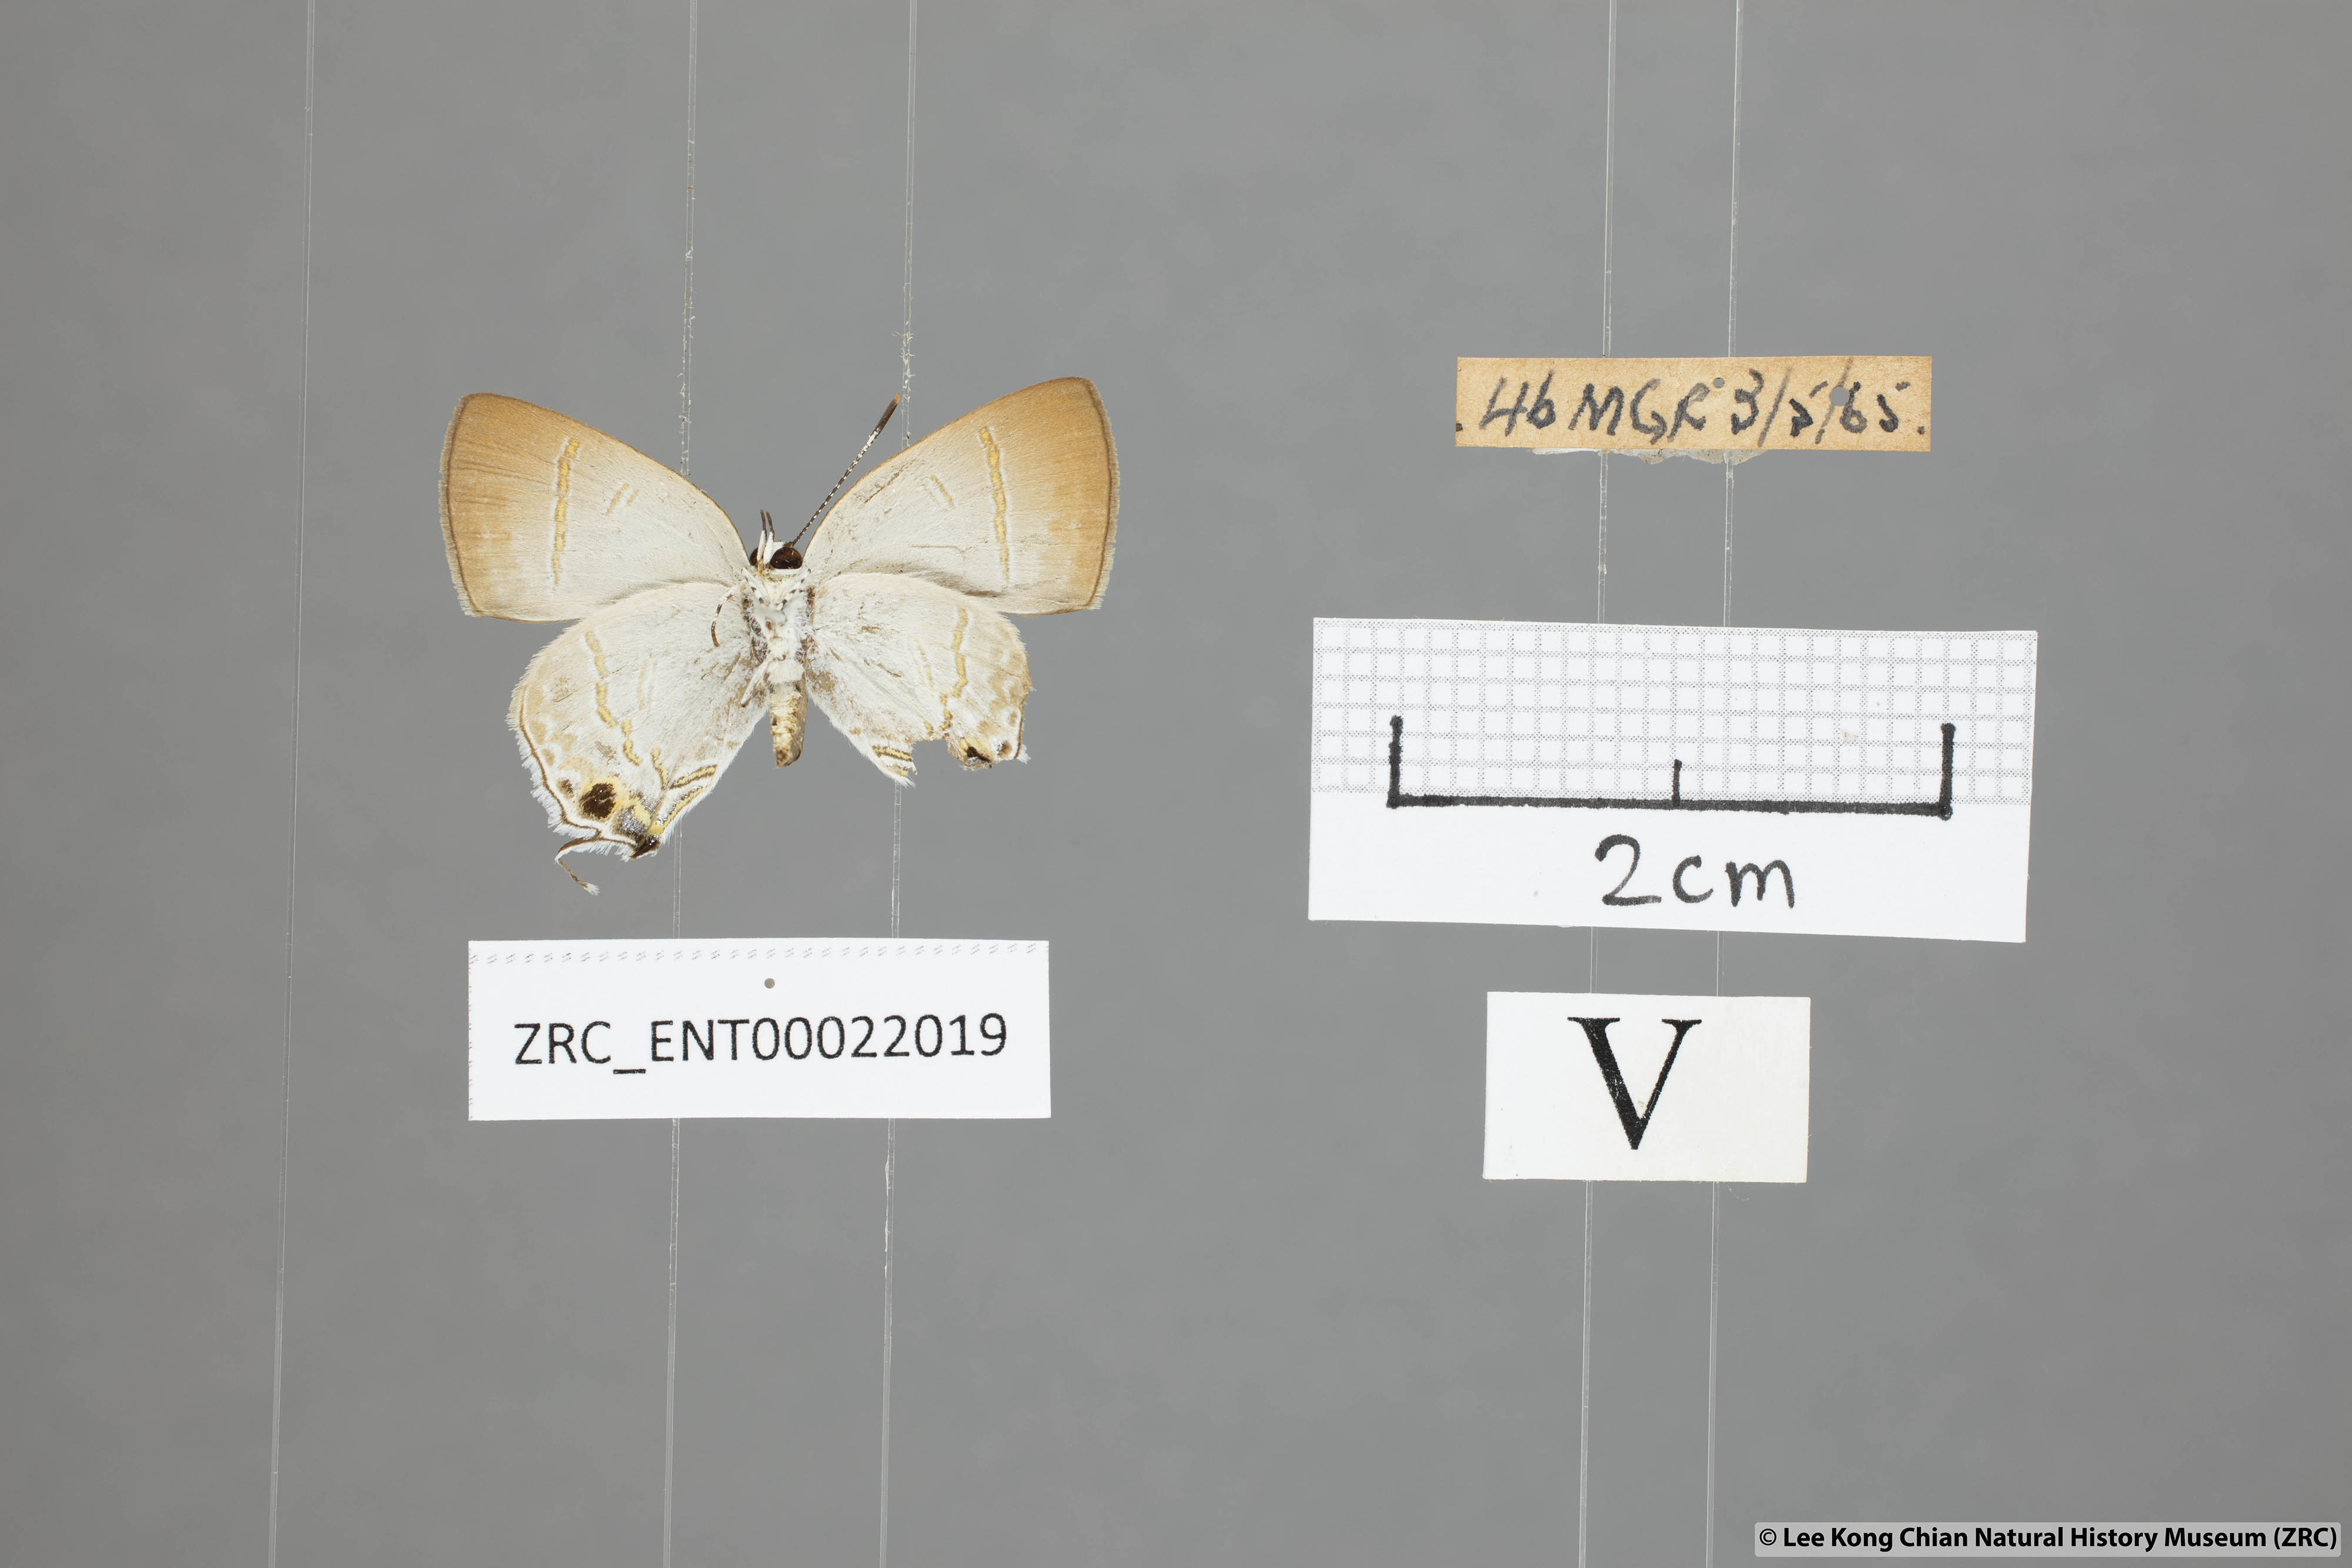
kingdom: Animalia
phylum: Arthropoda
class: Insecta
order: Lepidoptera
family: Lycaenidae
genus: Sinthusa
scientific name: Sinthusa nasaka
